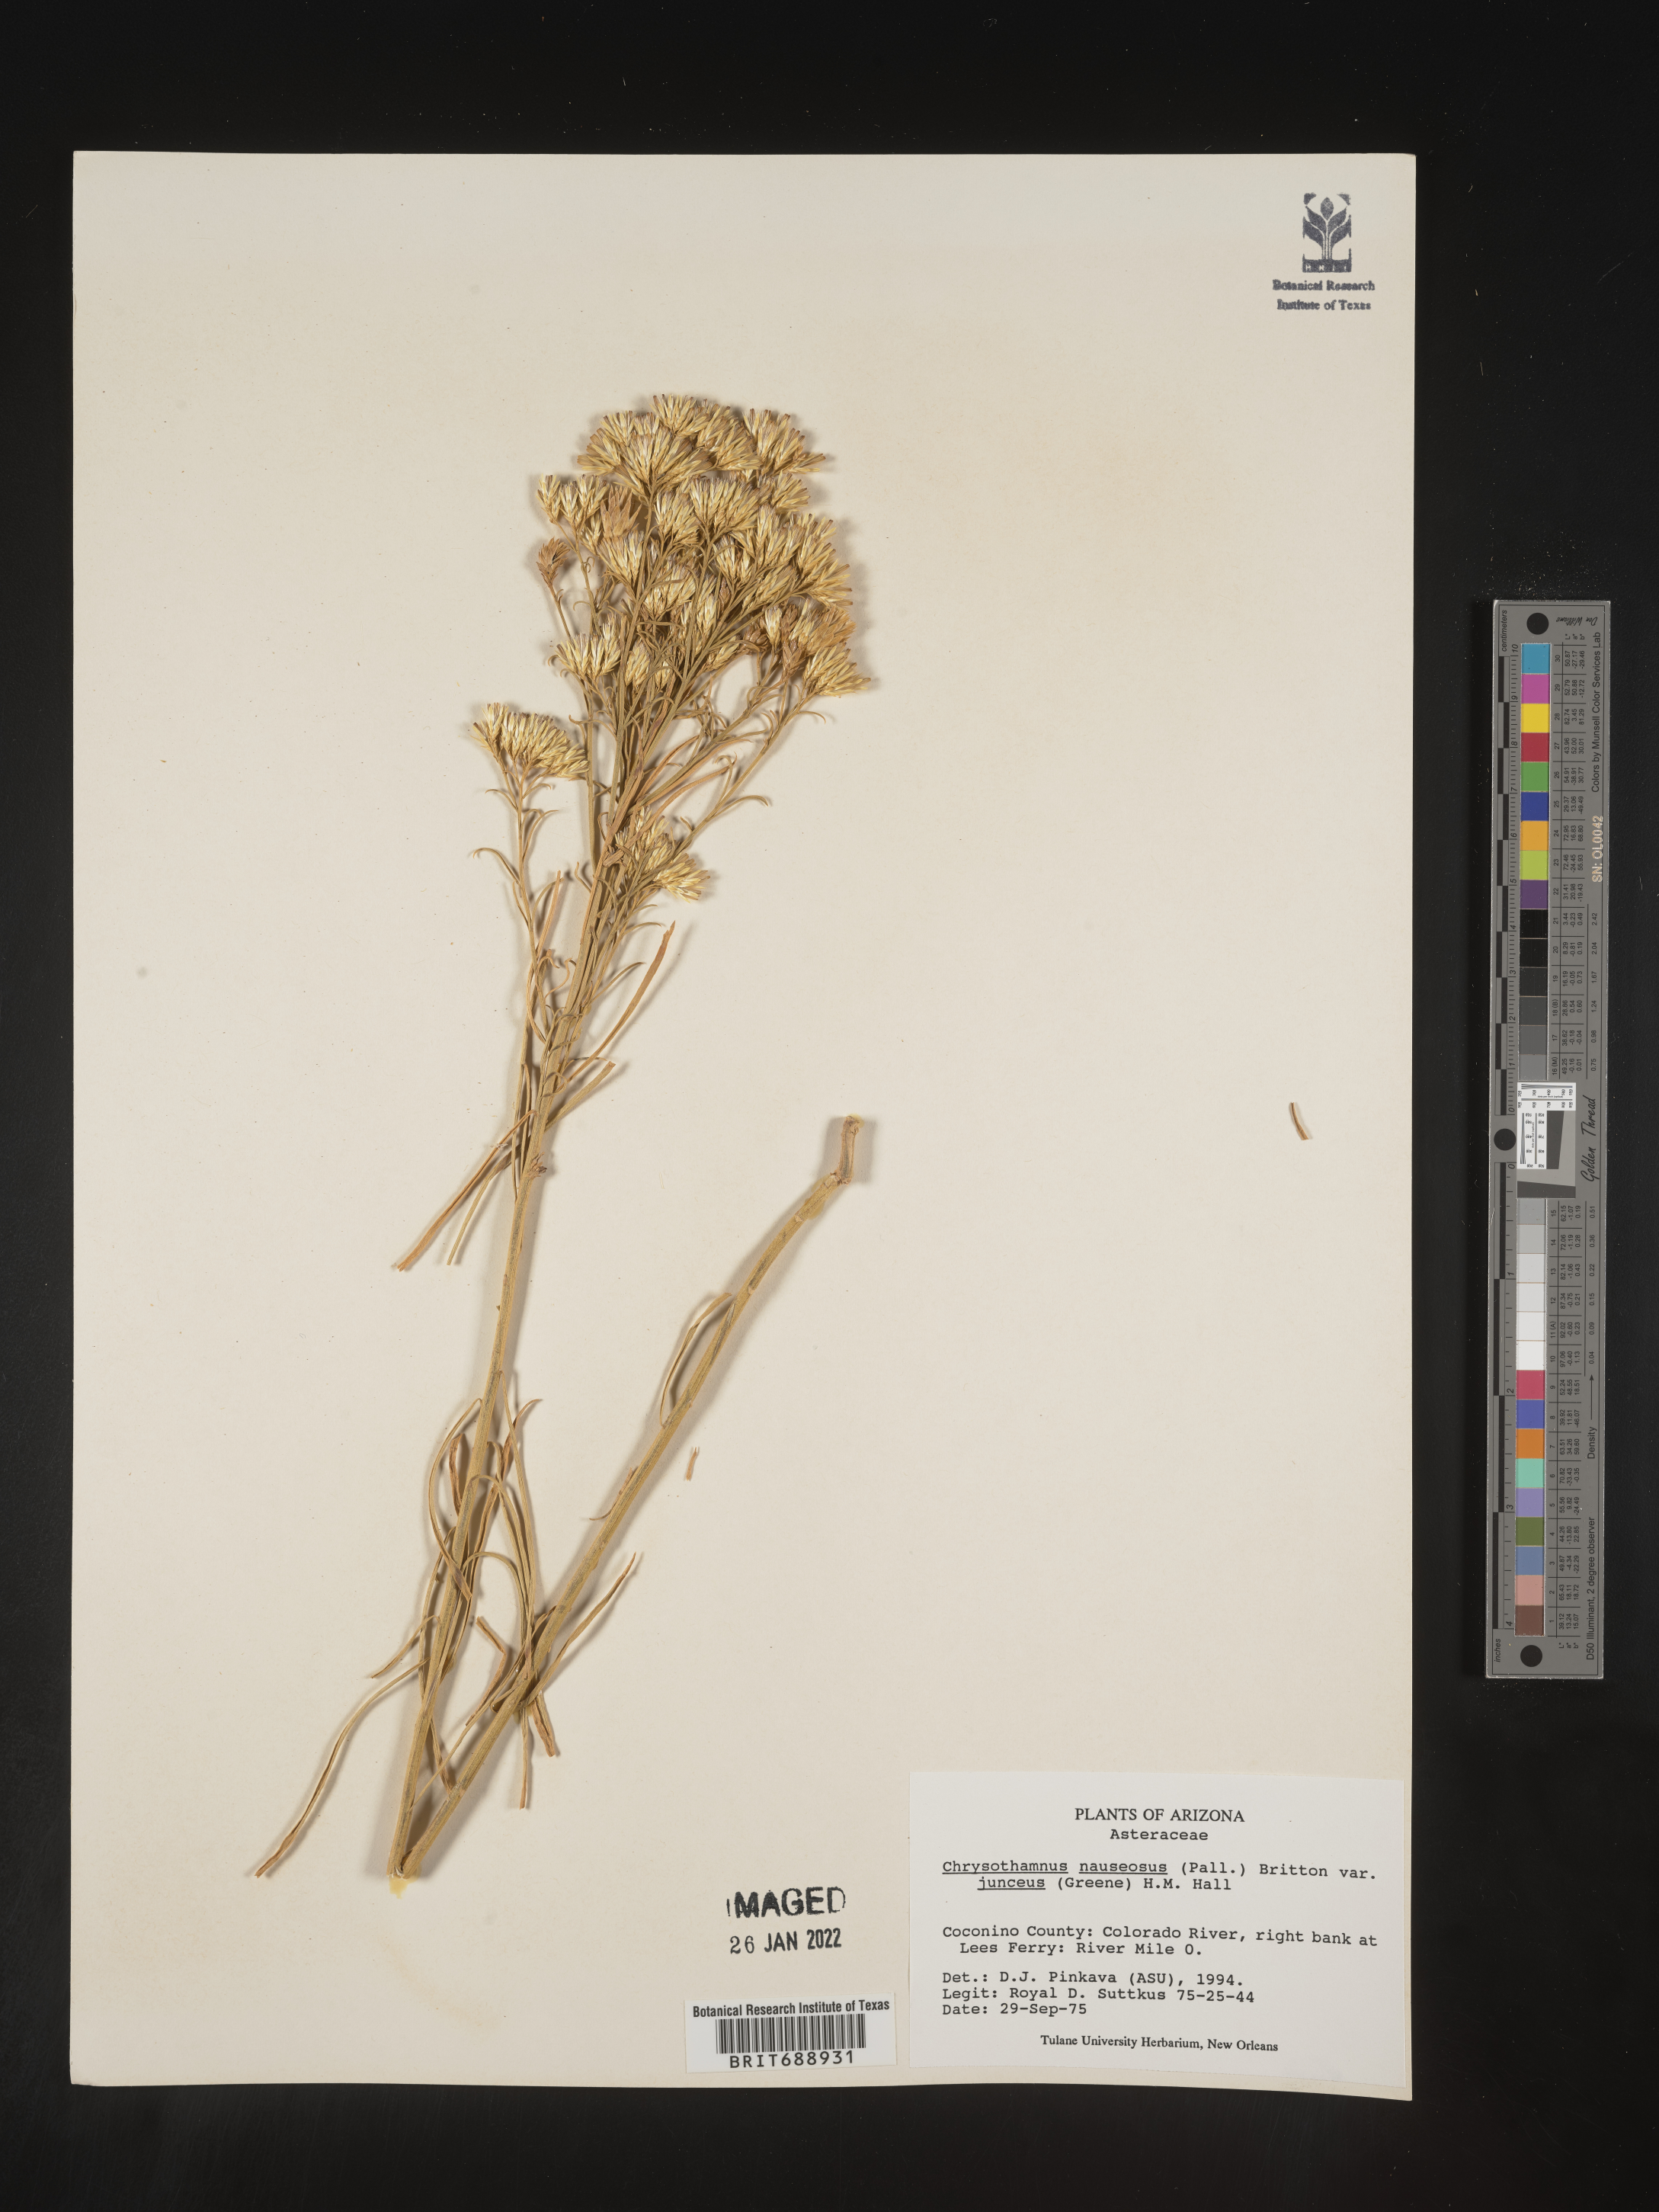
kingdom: Plantae
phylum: Tracheophyta
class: Magnoliopsida
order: Asterales
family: Asteraceae
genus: Ericameria
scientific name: Ericameria nauseosa
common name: Rubber rabbitbrush
